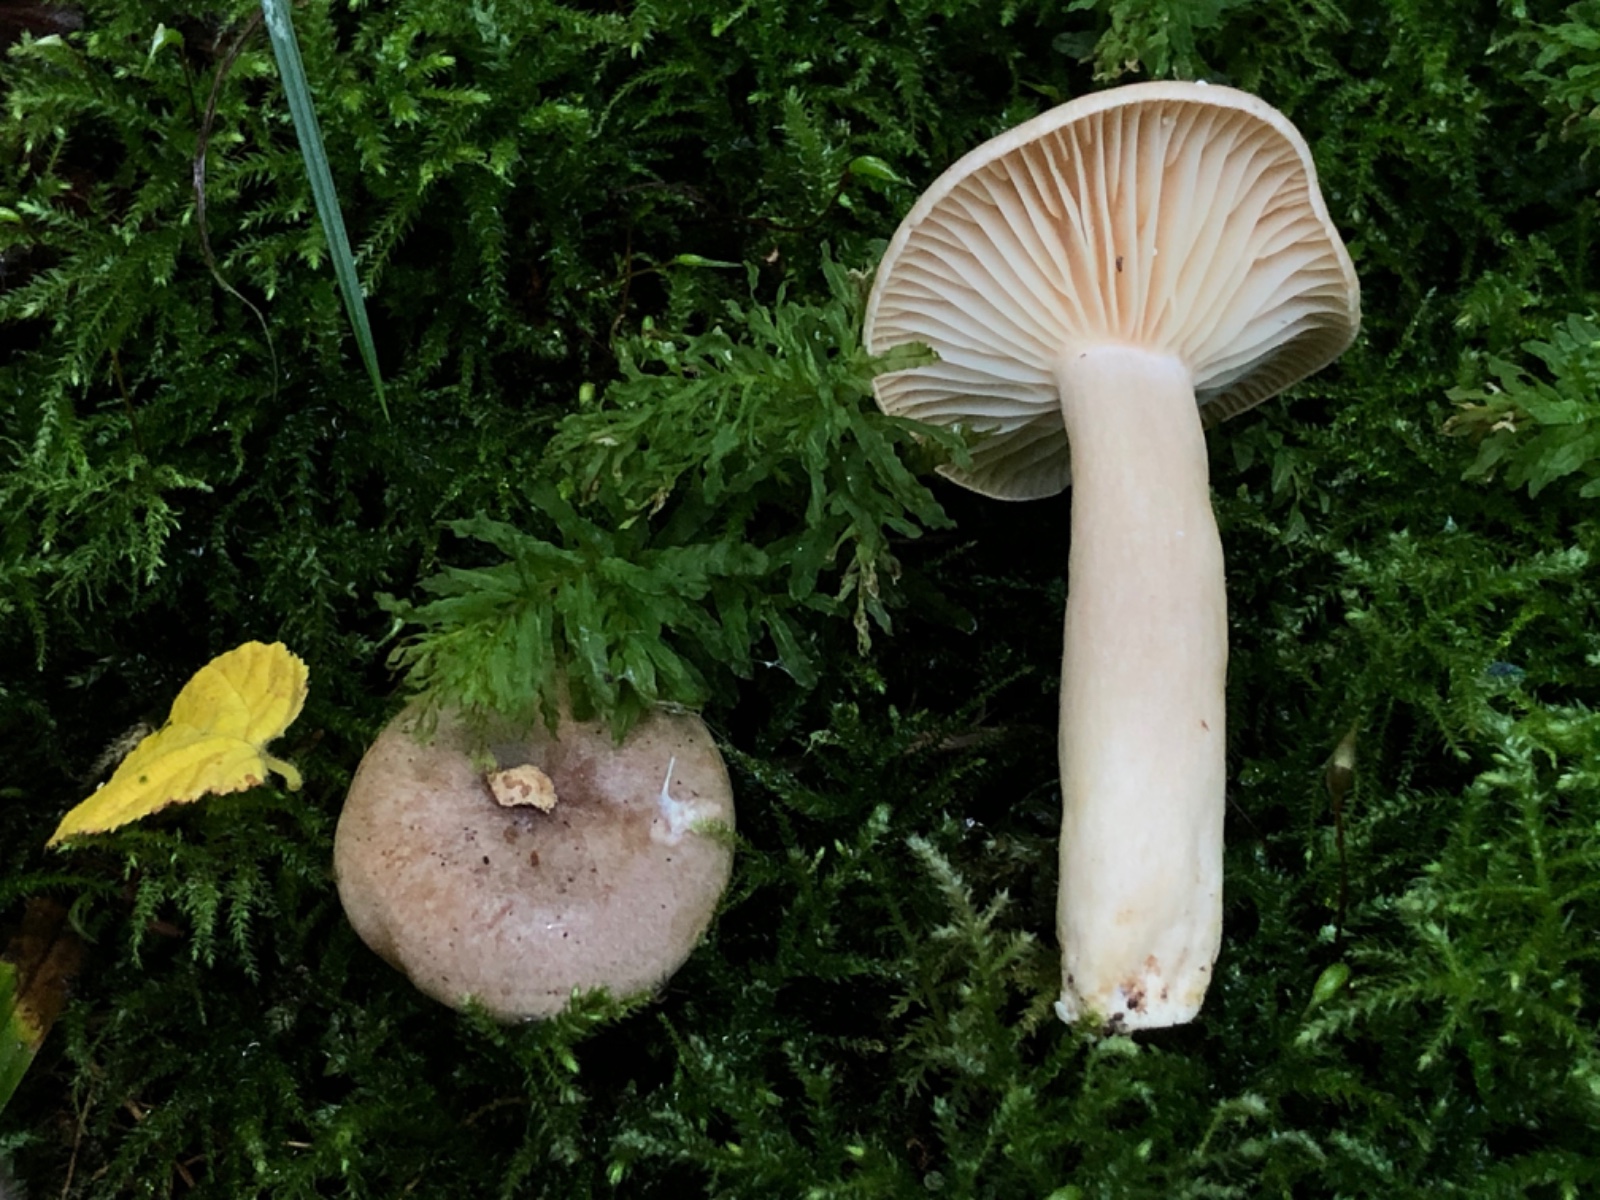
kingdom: Fungi
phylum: Basidiomycota
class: Agaricomycetes
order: Russulales
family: Russulaceae
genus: Lactarius
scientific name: Lactarius pyrogalus
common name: hassel-mælkehat
